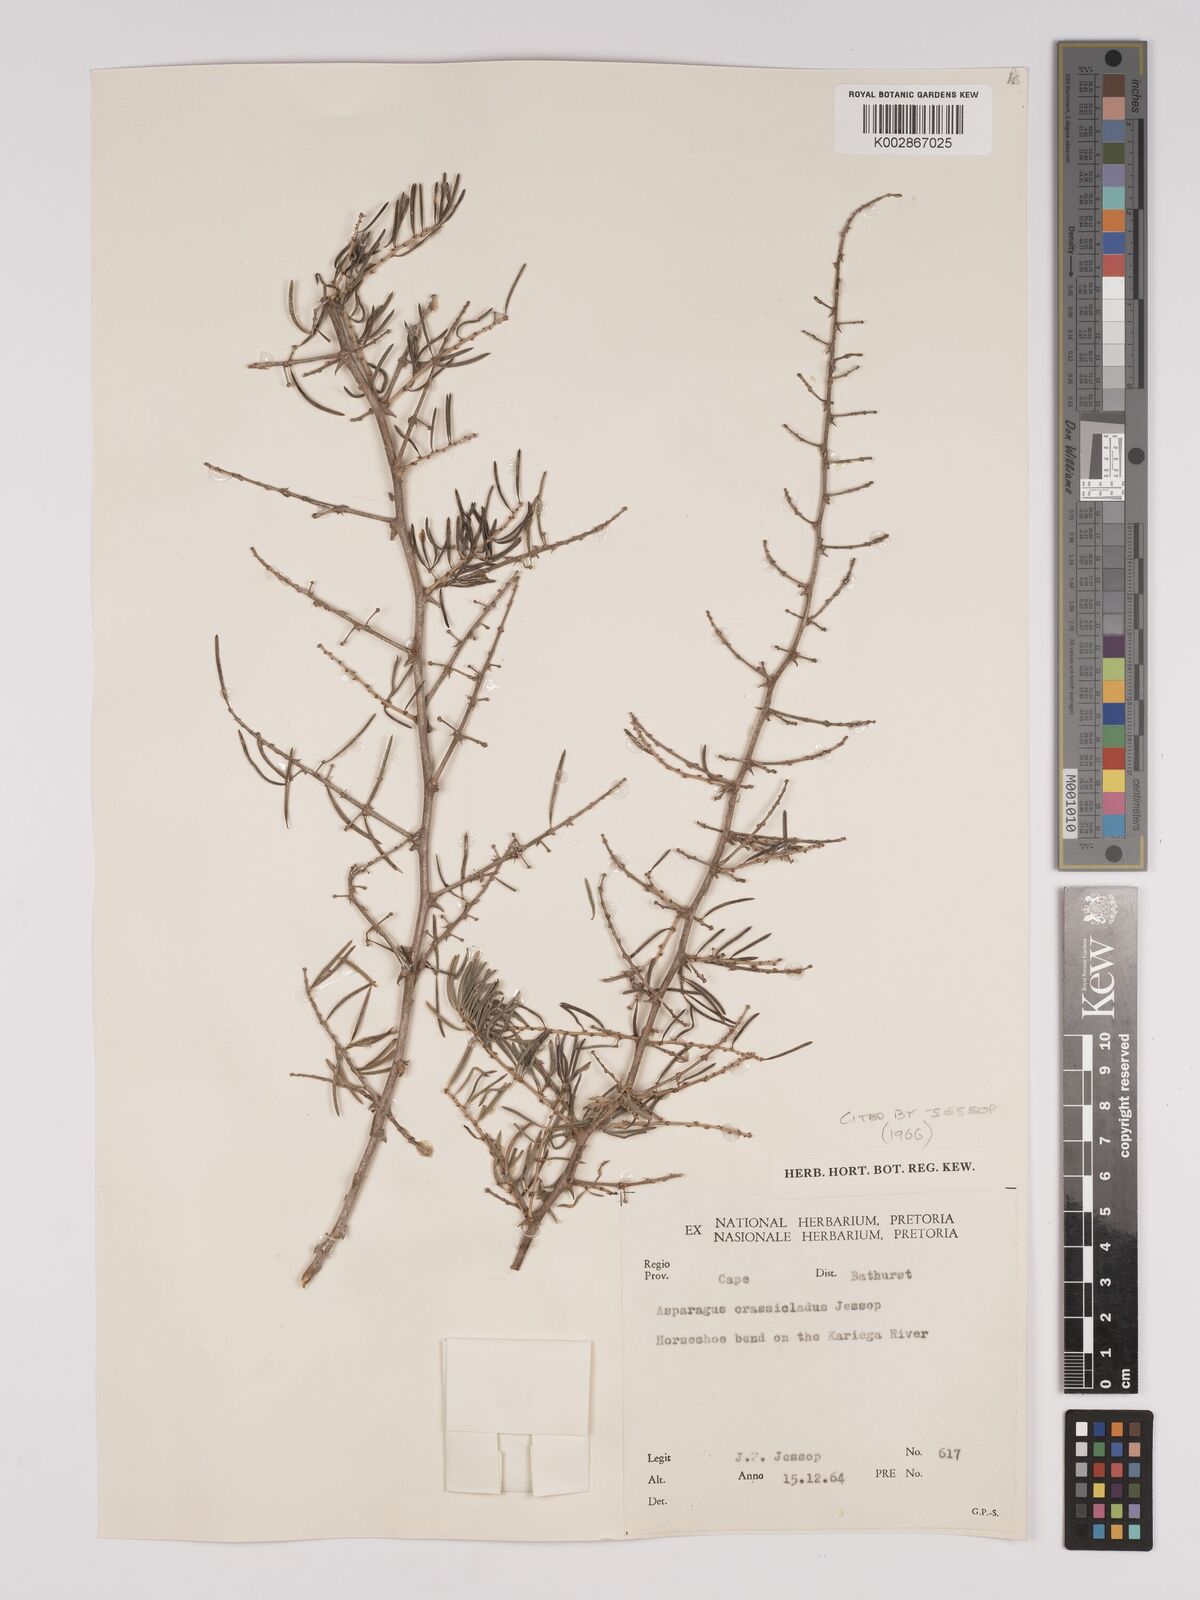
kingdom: Plantae
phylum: Tracheophyta
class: Liliopsida
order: Asparagales
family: Asparagaceae
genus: Asparagus
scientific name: Asparagus crassicladus
